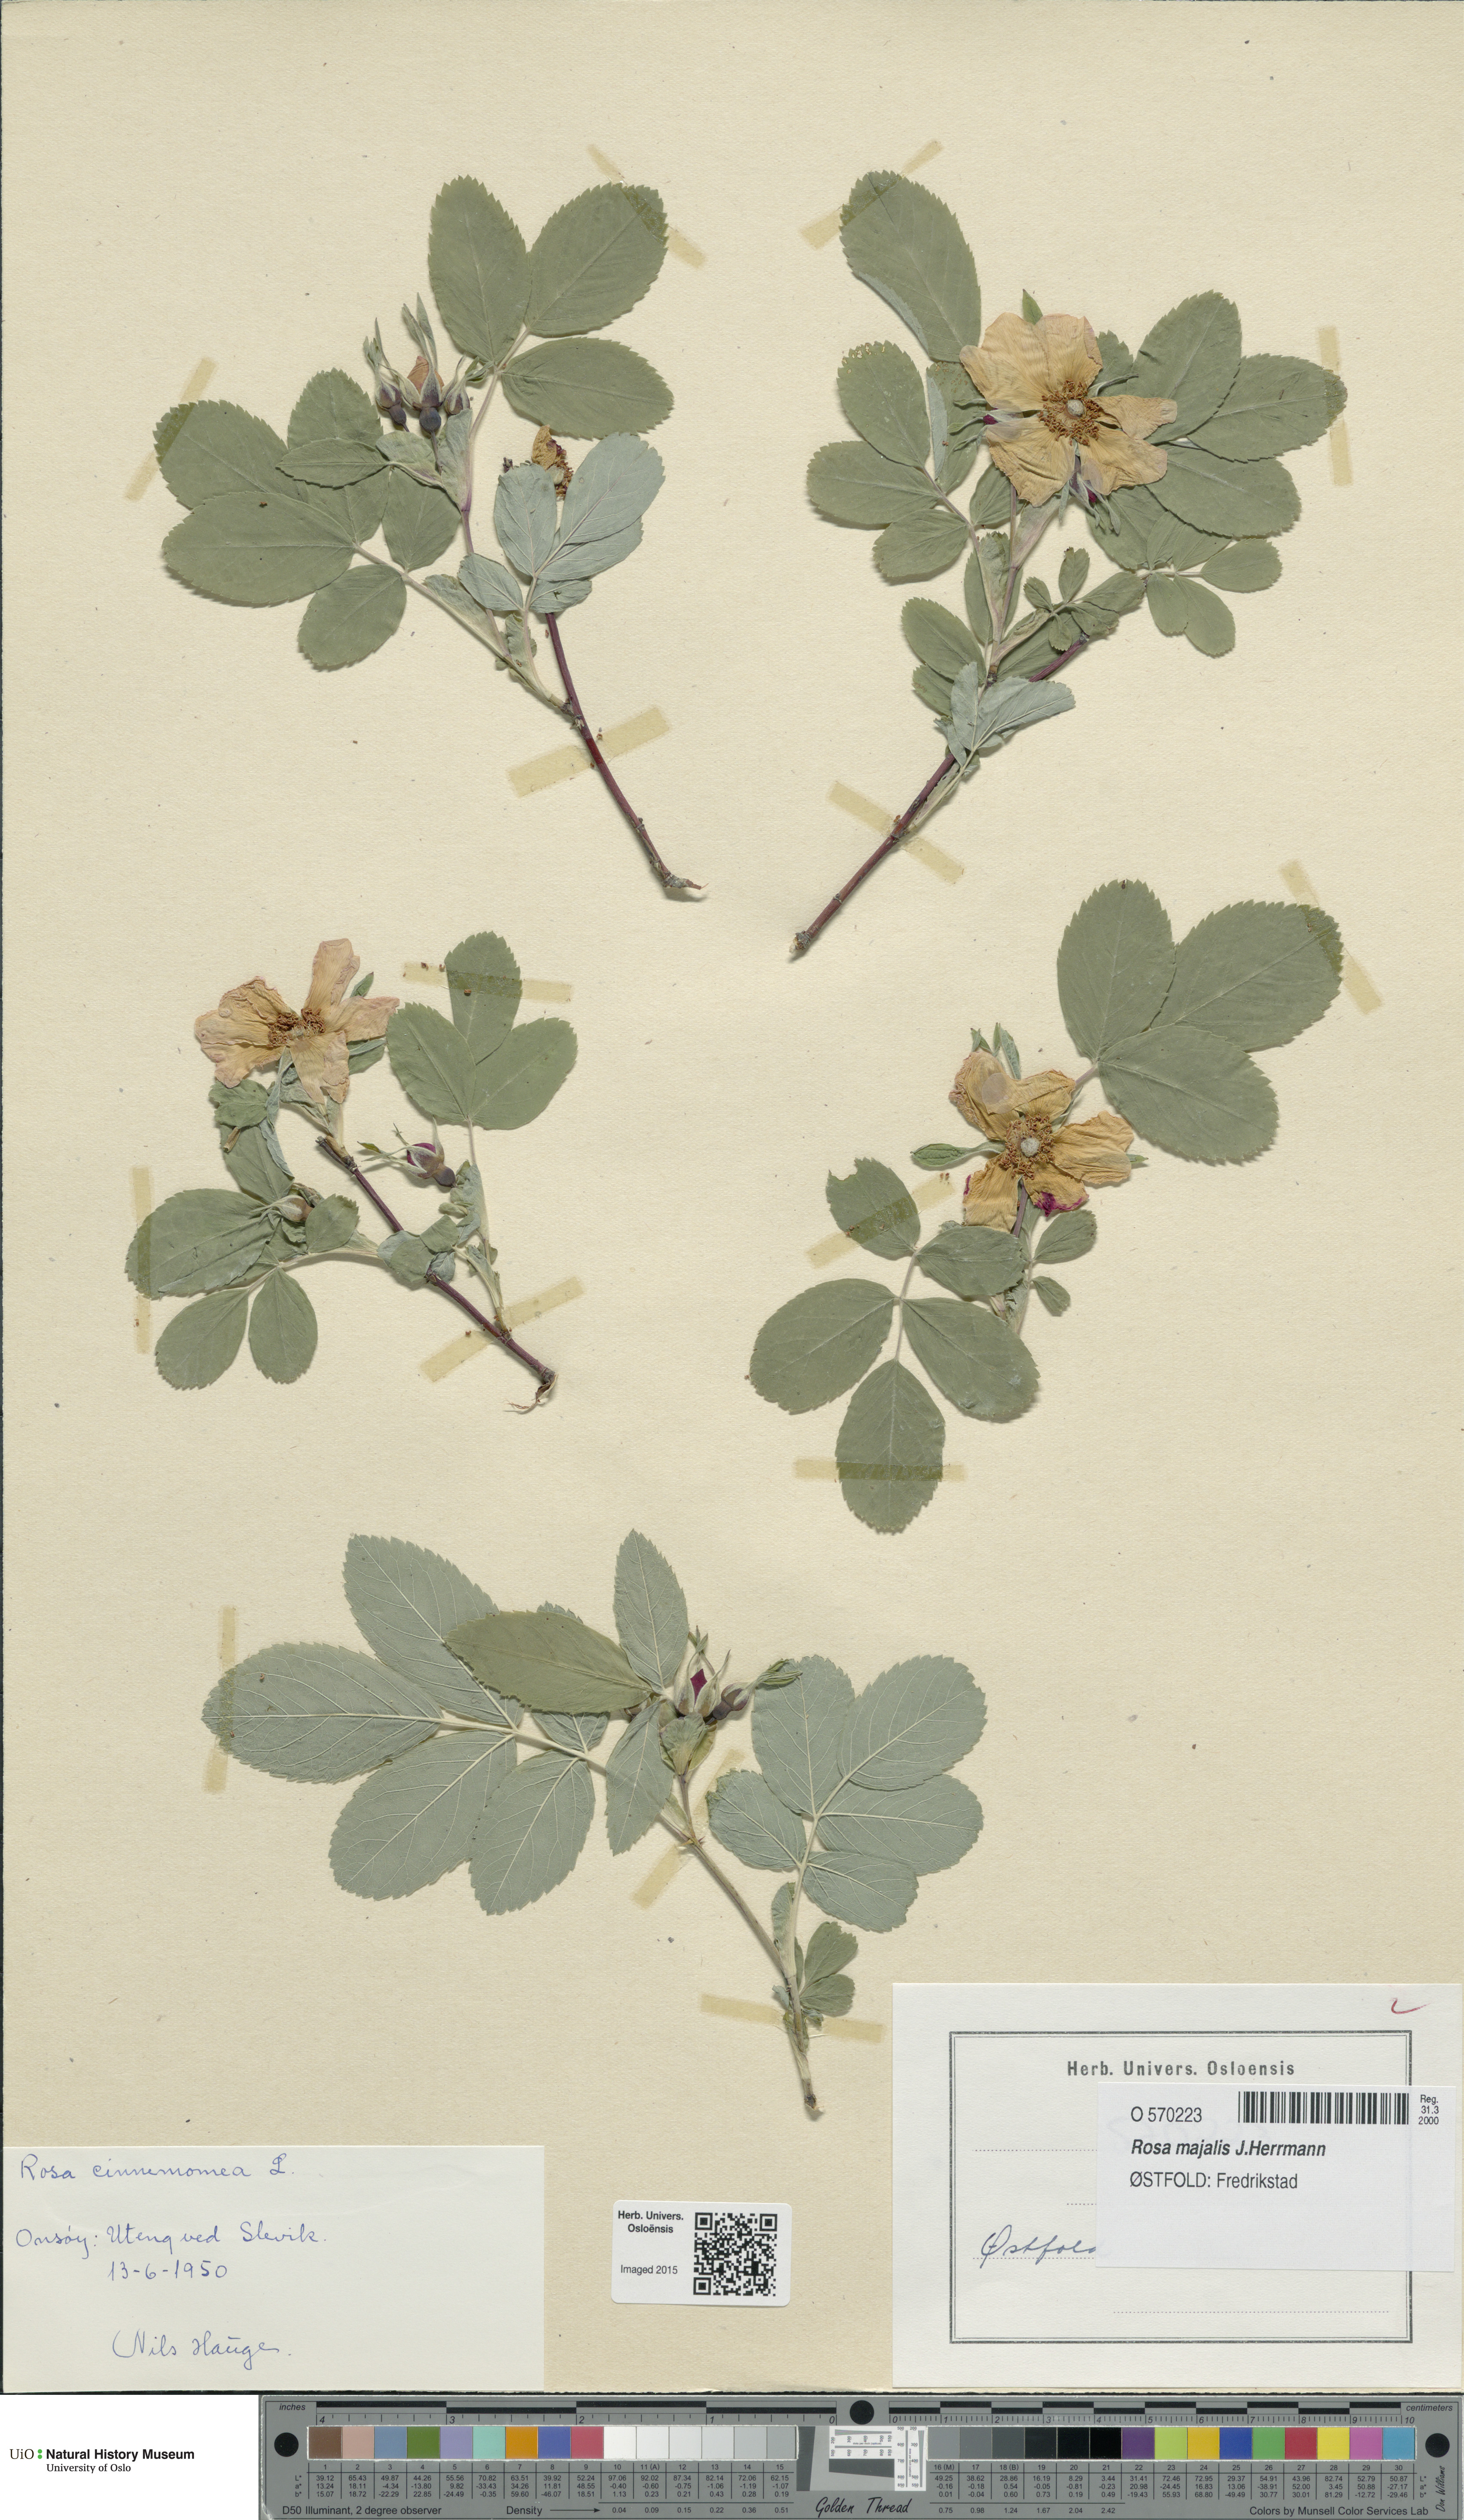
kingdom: Plantae
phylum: Tracheophyta
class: Magnoliopsida
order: Rosales
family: Rosaceae
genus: Rosa
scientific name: Rosa pendulina
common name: Alpine rose
